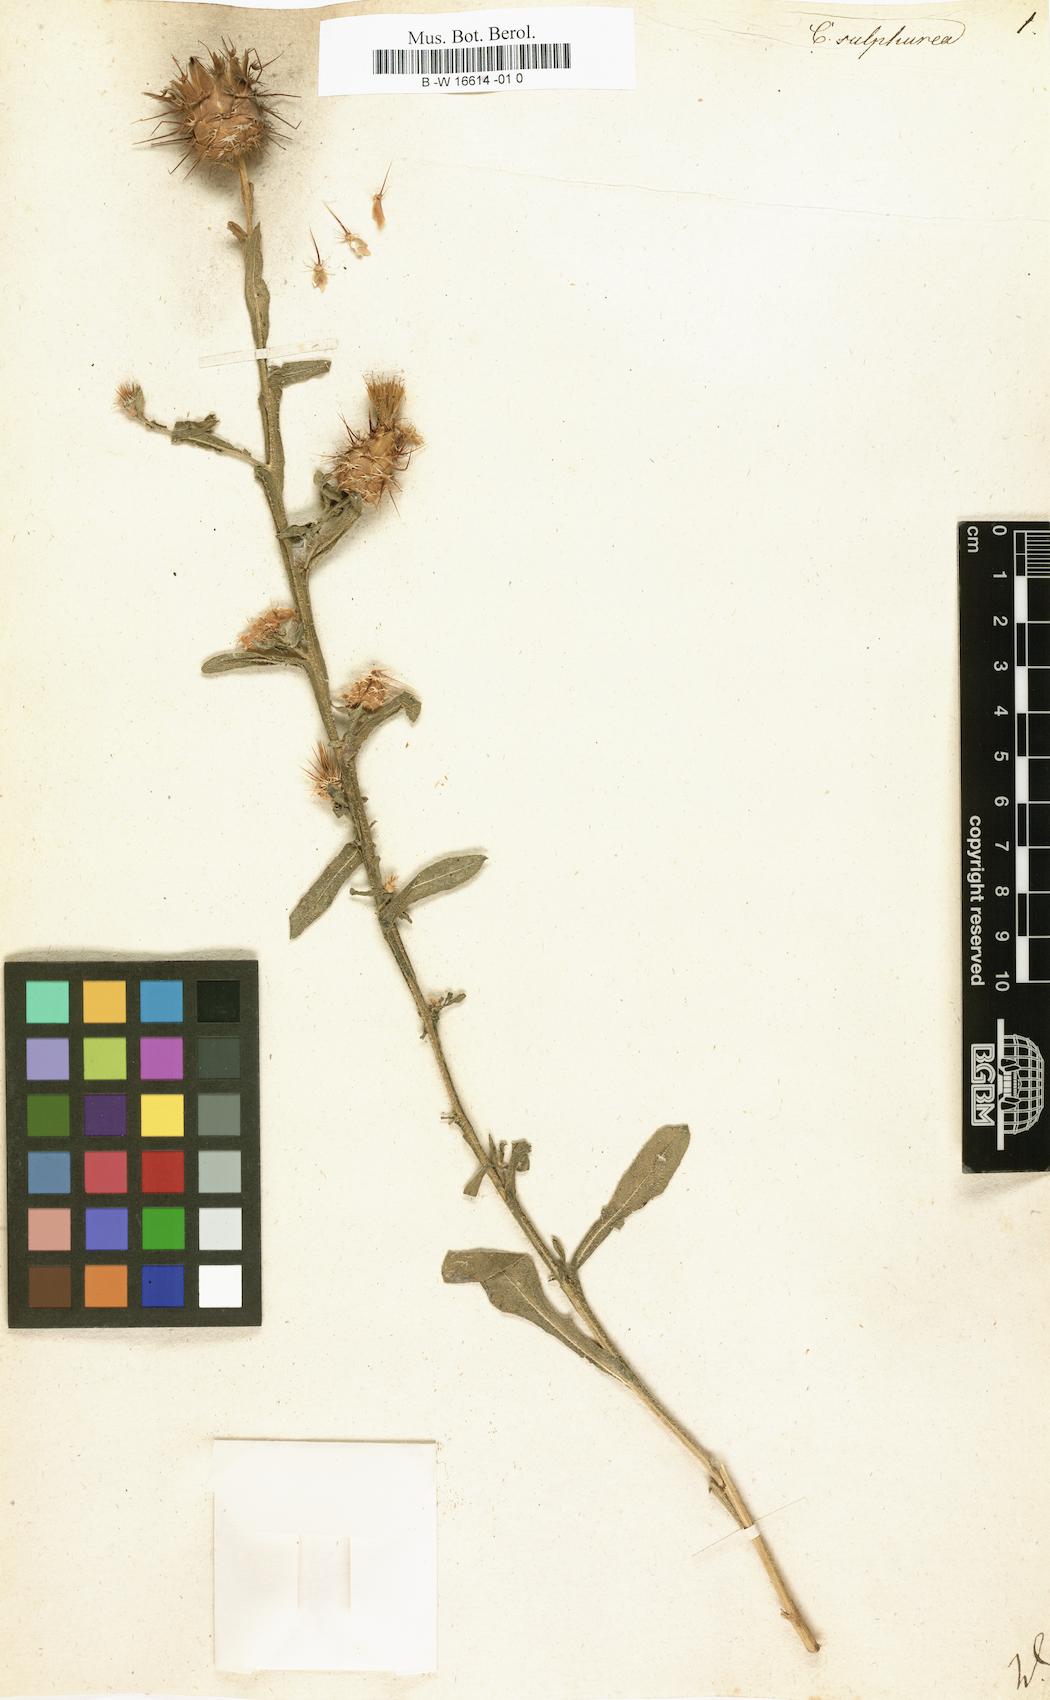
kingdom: Plantae
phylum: Tracheophyta
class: Magnoliopsida
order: Asterales
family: Asteraceae
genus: Centaurea
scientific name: Centaurea sulphurea
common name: Sulphur knapweed
